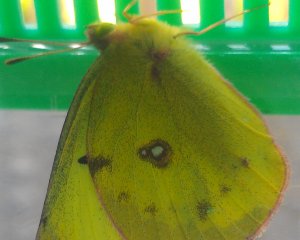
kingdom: Animalia
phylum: Arthropoda
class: Insecta
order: Lepidoptera
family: Pieridae
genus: Colias
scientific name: Colias philodice
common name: Clouded Sulphur
